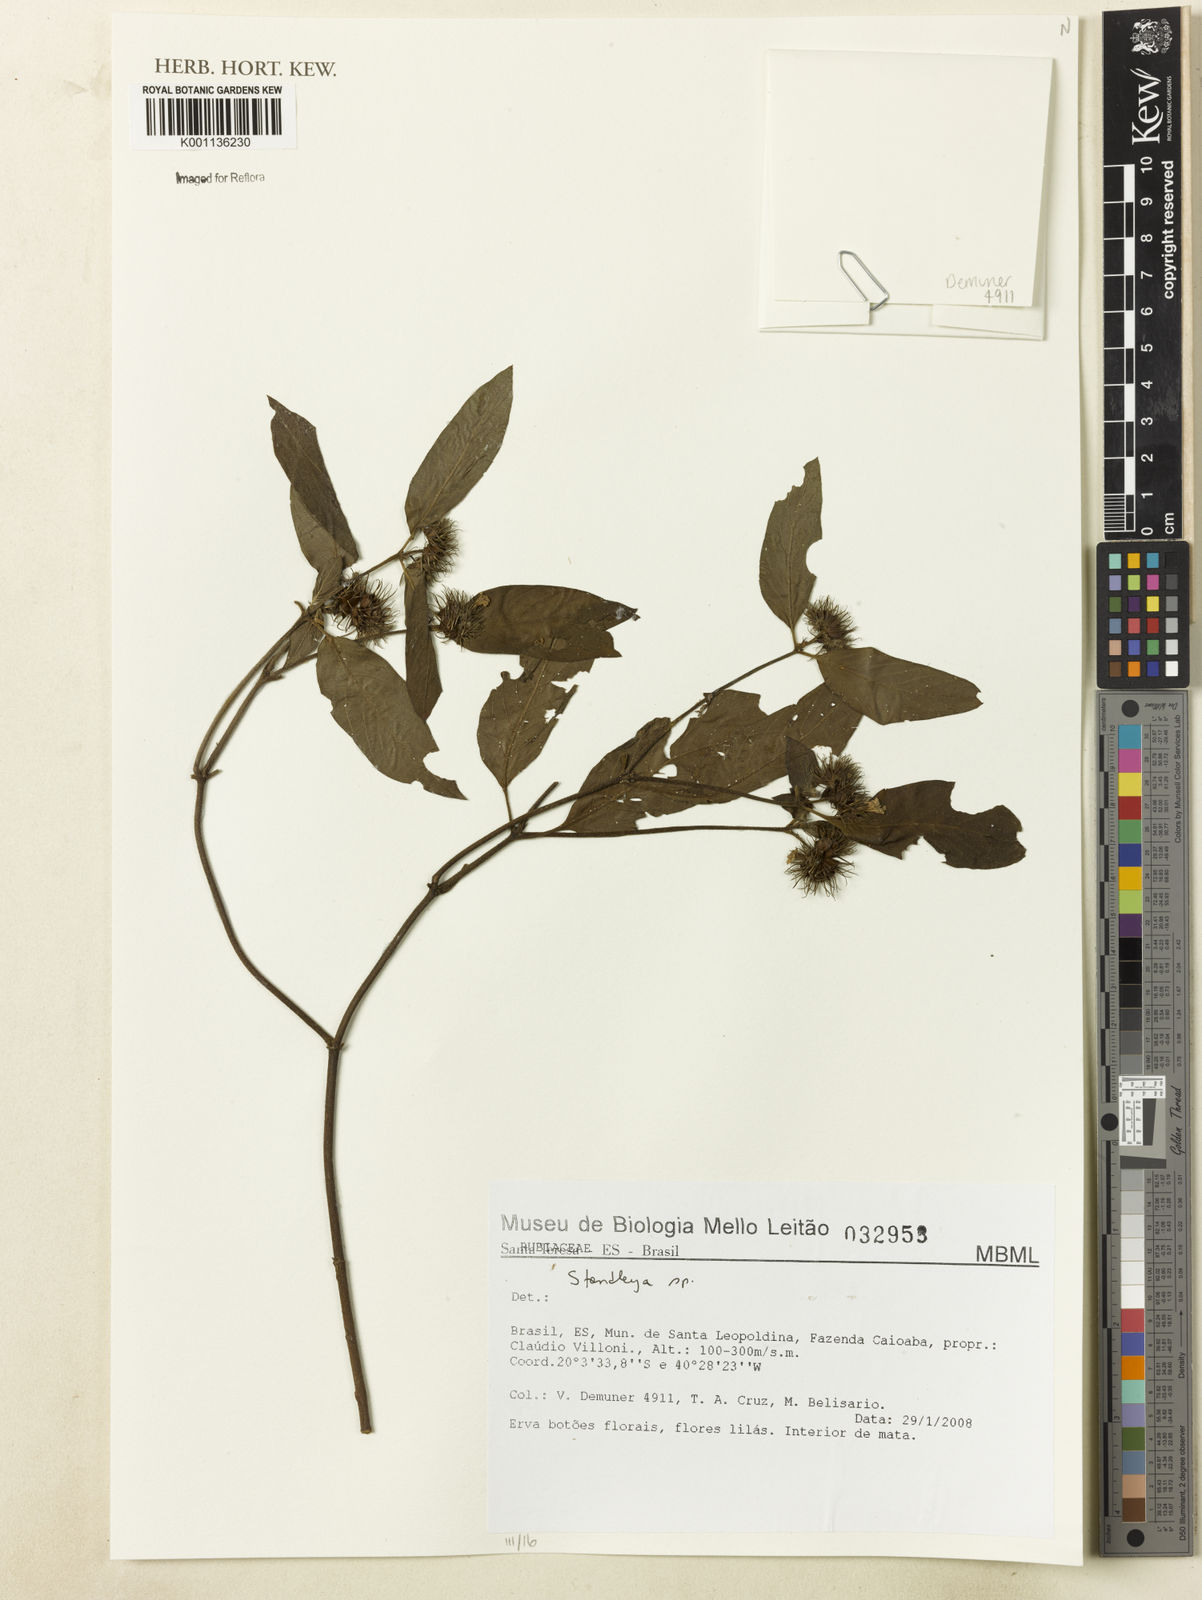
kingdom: Plantae
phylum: Tracheophyta
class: Magnoliopsida
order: Gentianales
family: Rubiaceae
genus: Standleya
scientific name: Standleya
